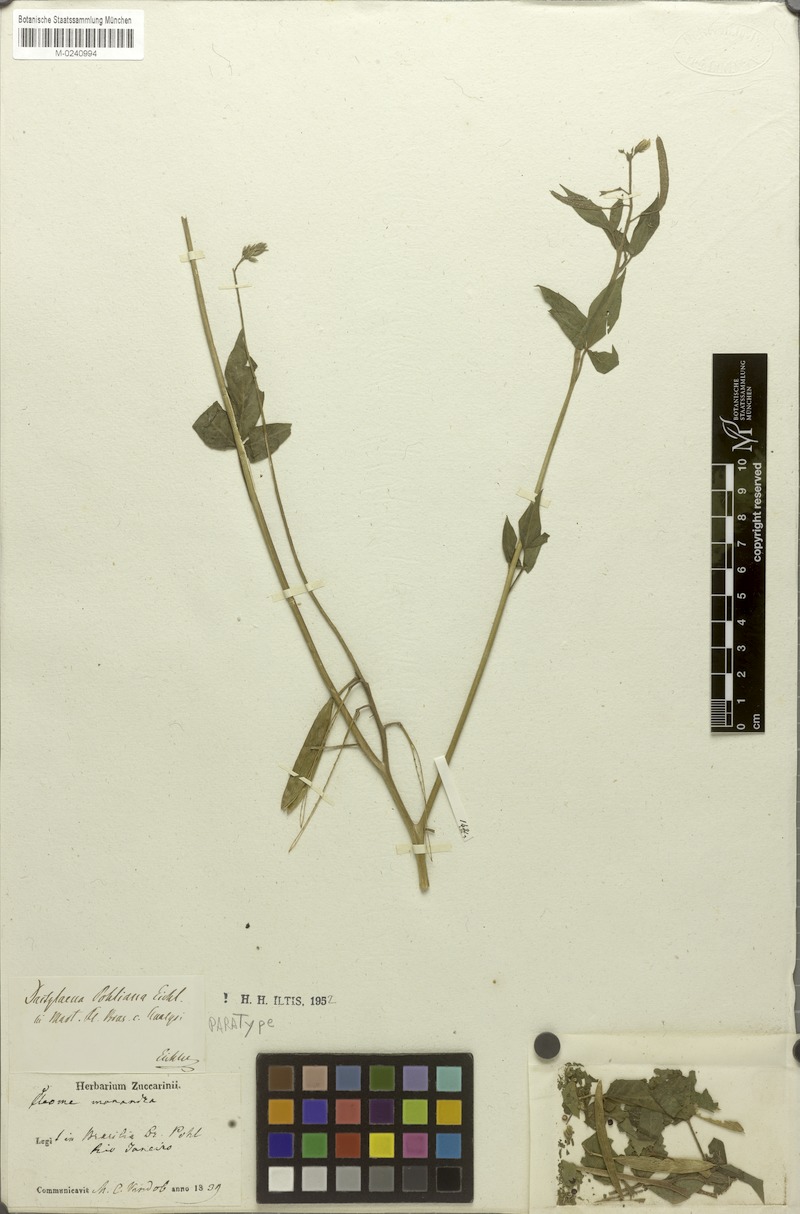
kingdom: Plantae
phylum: Tracheophyta
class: Magnoliopsida
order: Brassicales
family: Cleomaceae
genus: Dactylaena
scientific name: Dactylaena pohliana
